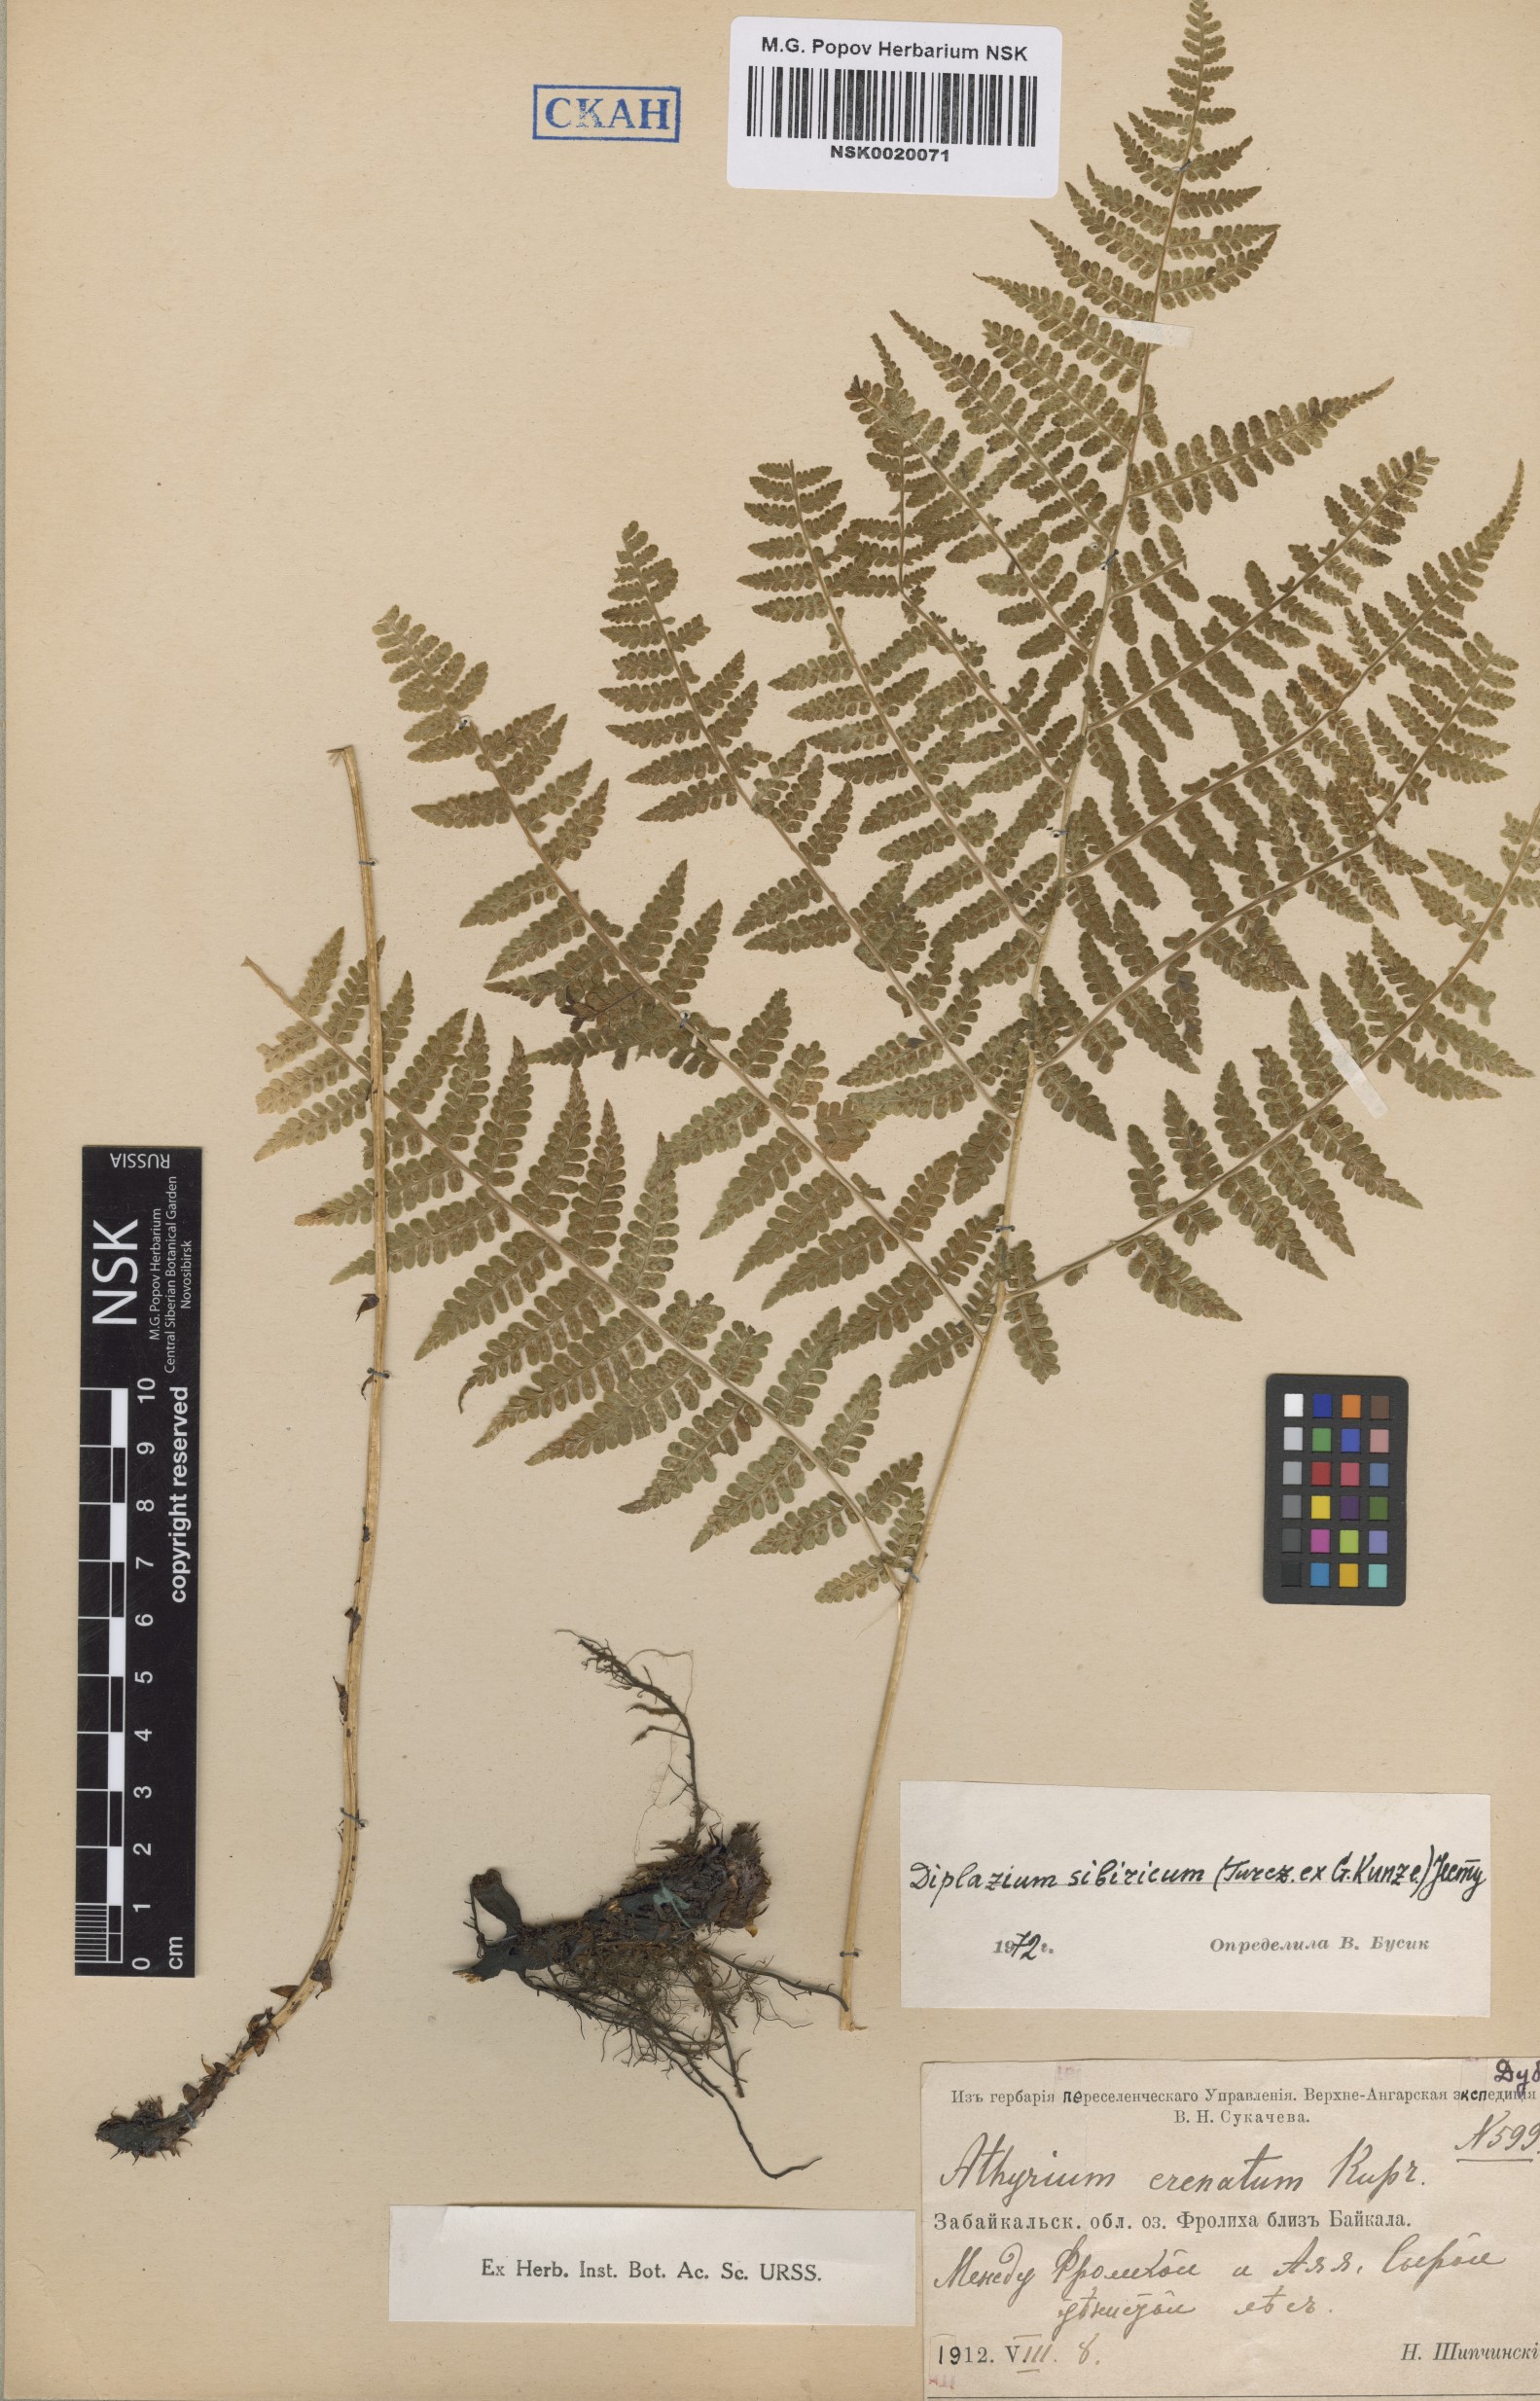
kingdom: Plantae
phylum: Tracheophyta
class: Polypodiopsida
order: Polypodiales
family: Athyriaceae
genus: Diplazium
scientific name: Diplazium sibiricum
